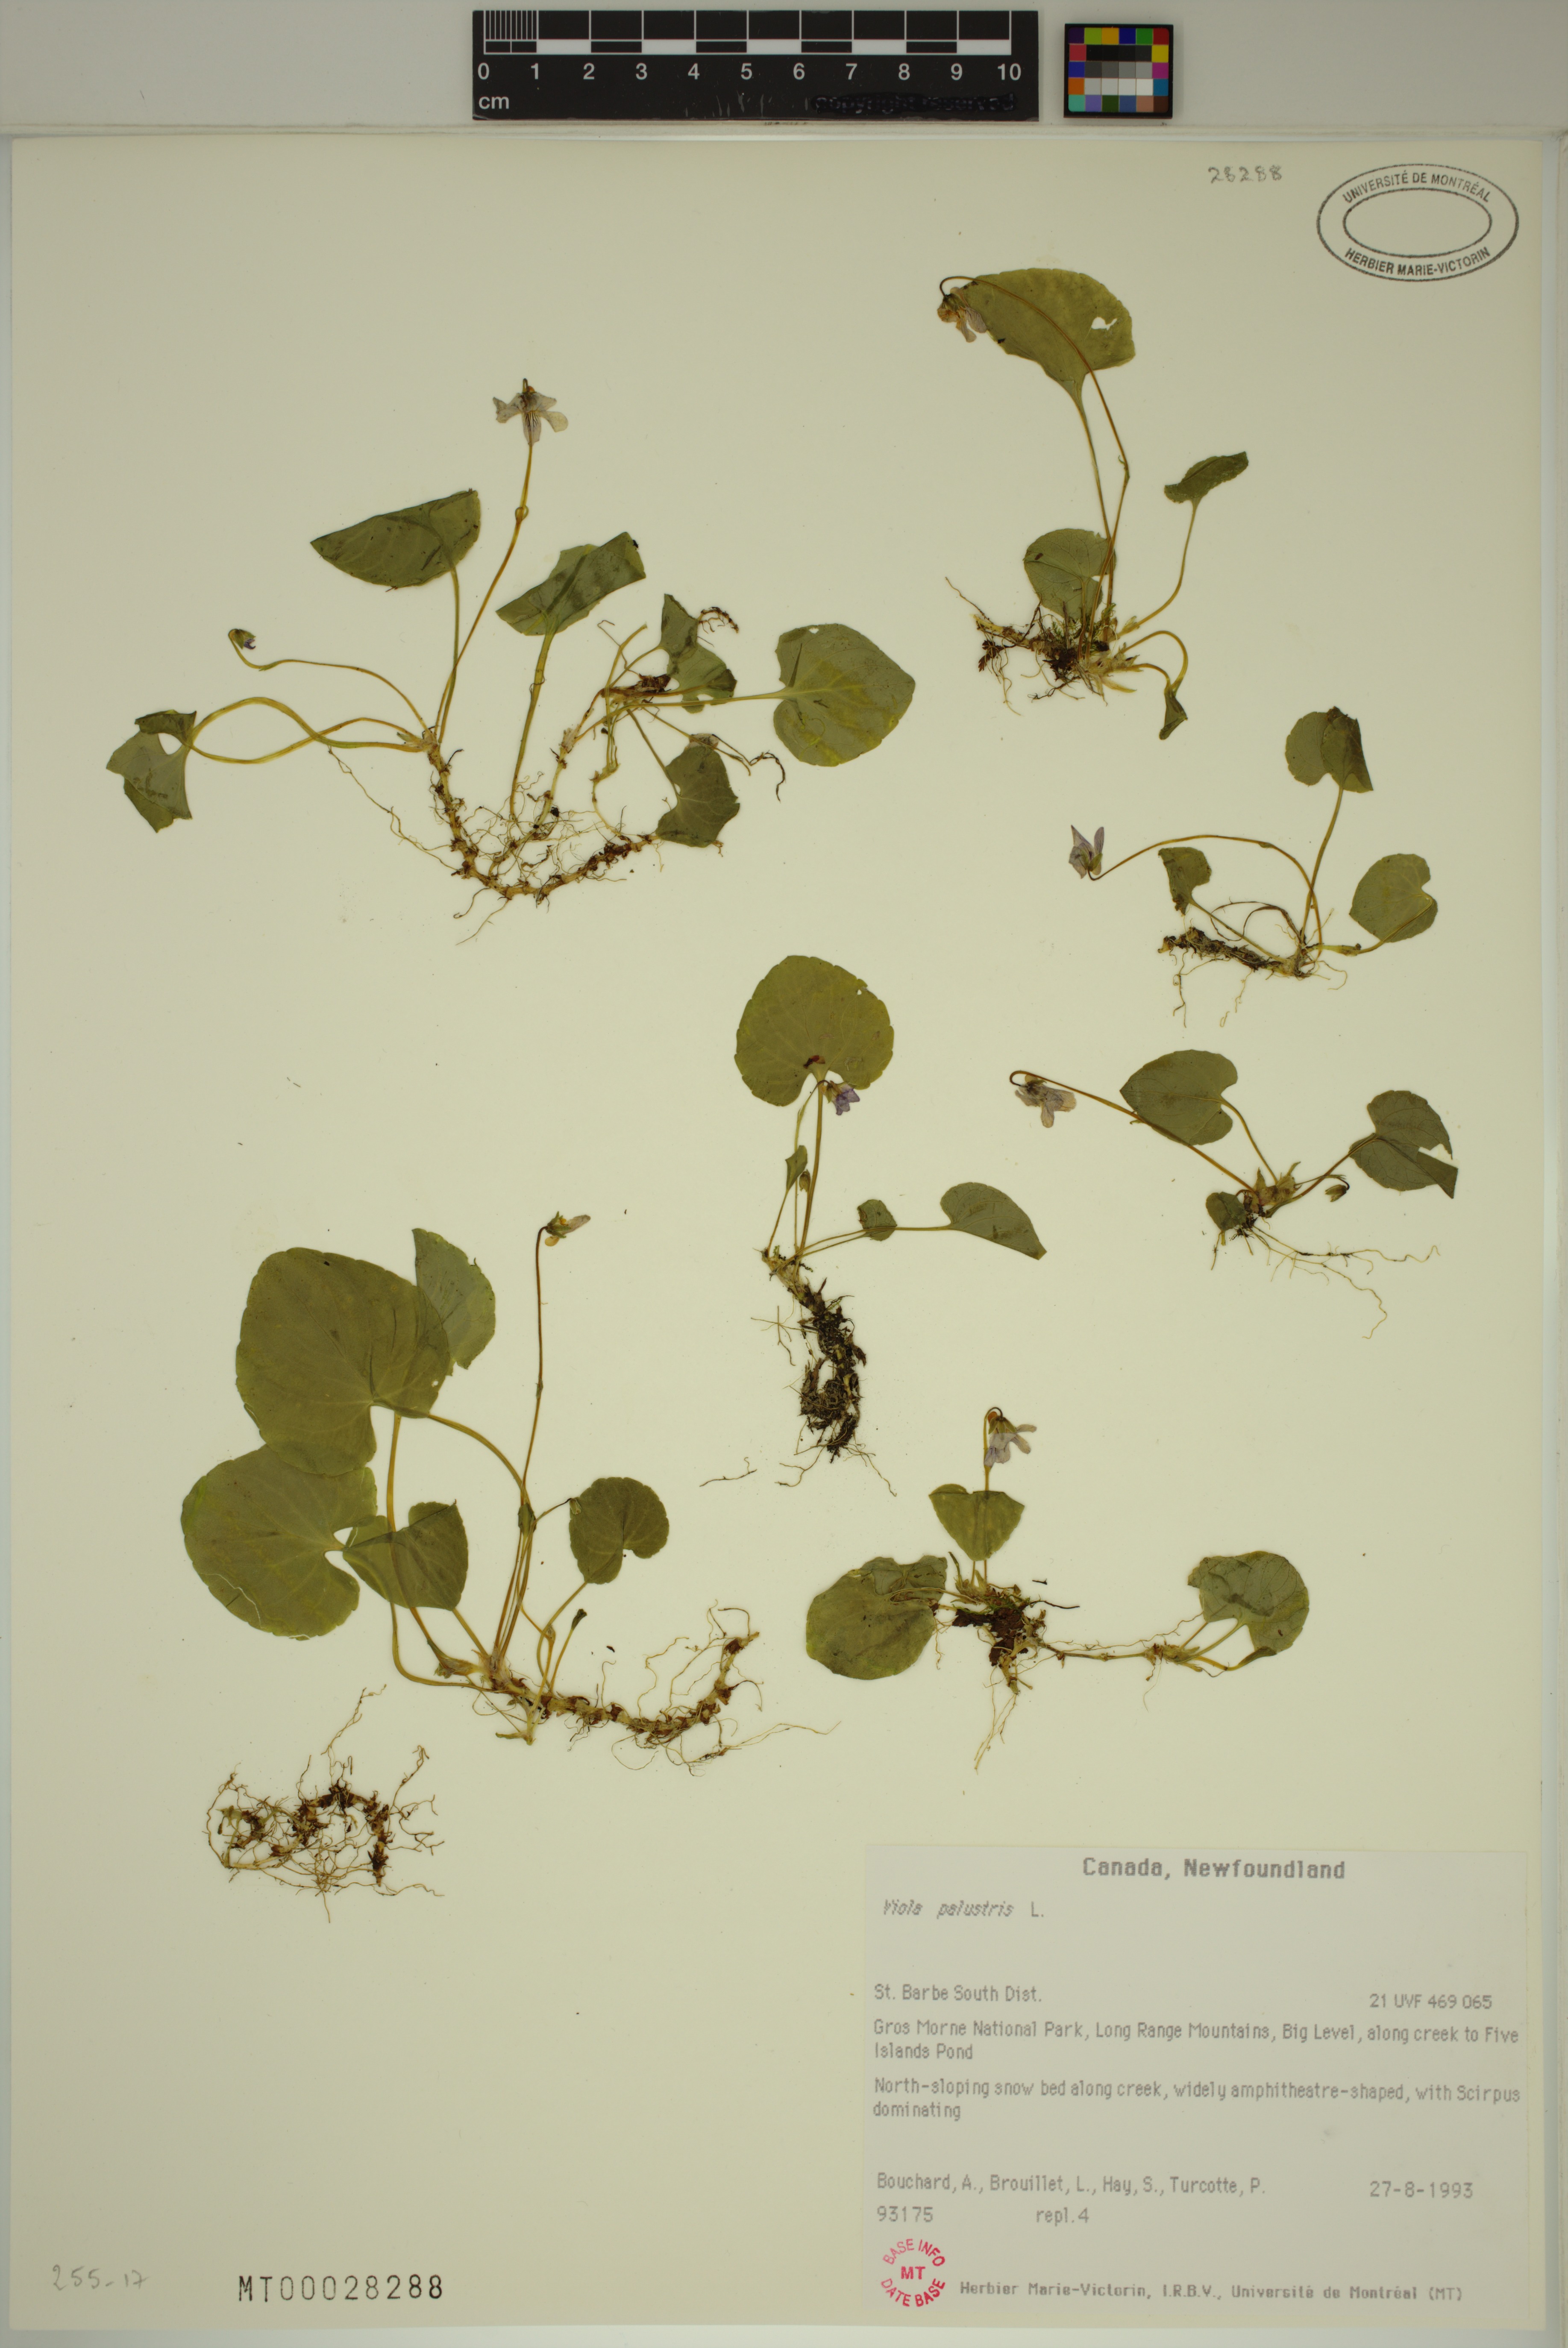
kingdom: Plantae
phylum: Tracheophyta
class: Magnoliopsida
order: Malpighiales
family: Violaceae
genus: Viola
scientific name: Viola palustris
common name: Marsh violet
